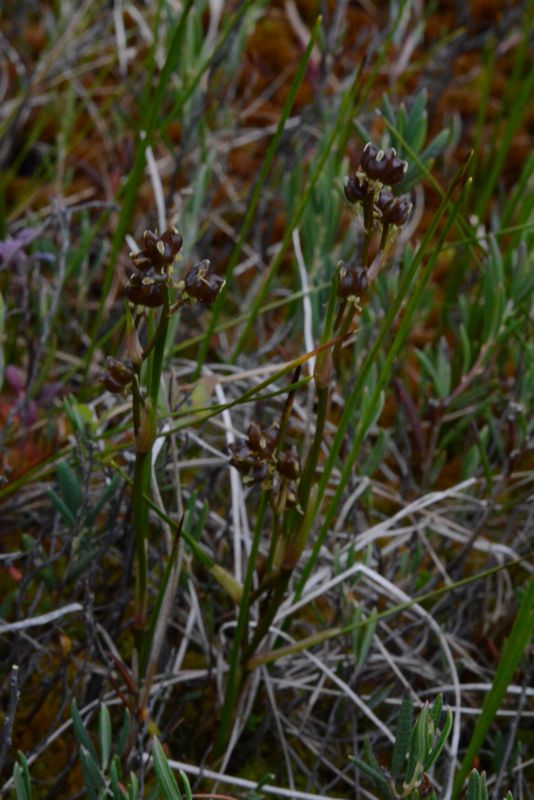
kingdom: Plantae
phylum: Tracheophyta
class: Liliopsida
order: Alismatales
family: Scheuchzeriaceae
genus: Scheuchzeria
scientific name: Scheuchzeria palustris
